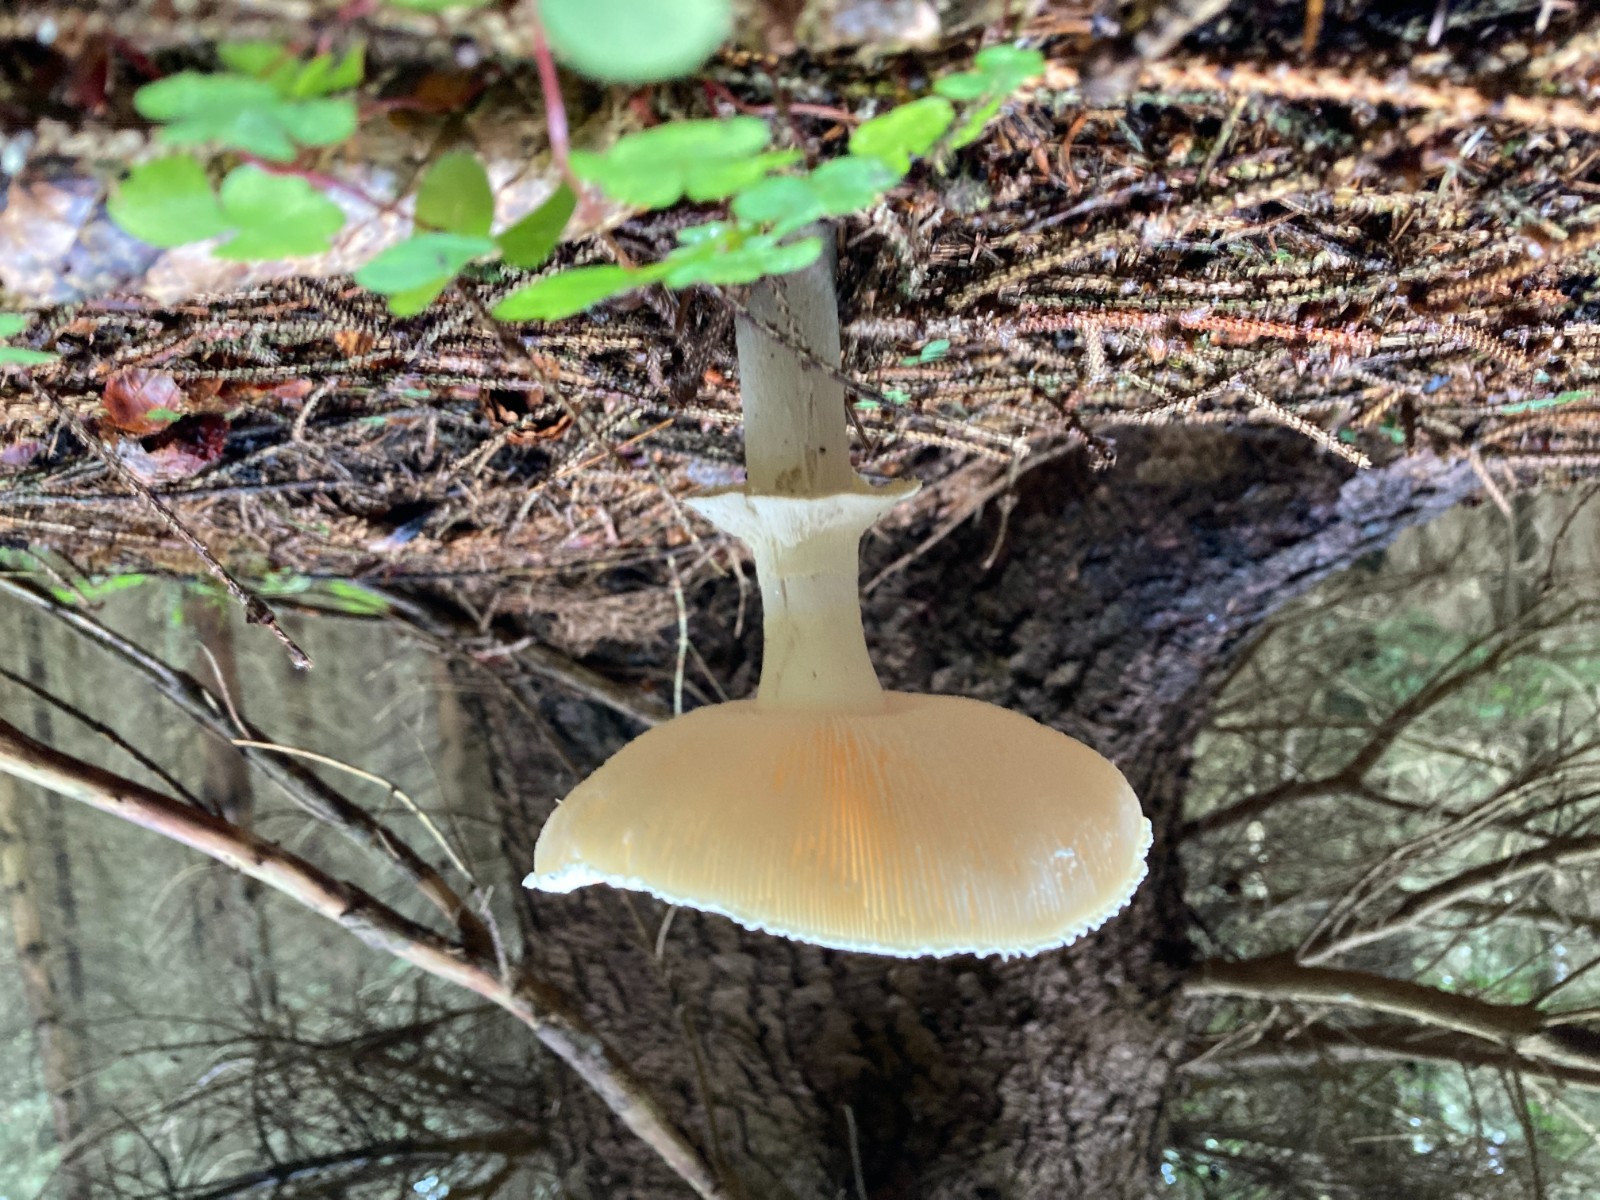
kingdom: Fungi
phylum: Basidiomycota
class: Agaricomycetes
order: Agaricales
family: Amanitaceae
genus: Amanita
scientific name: Amanita citrina
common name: kugleknoldet fluesvamp
